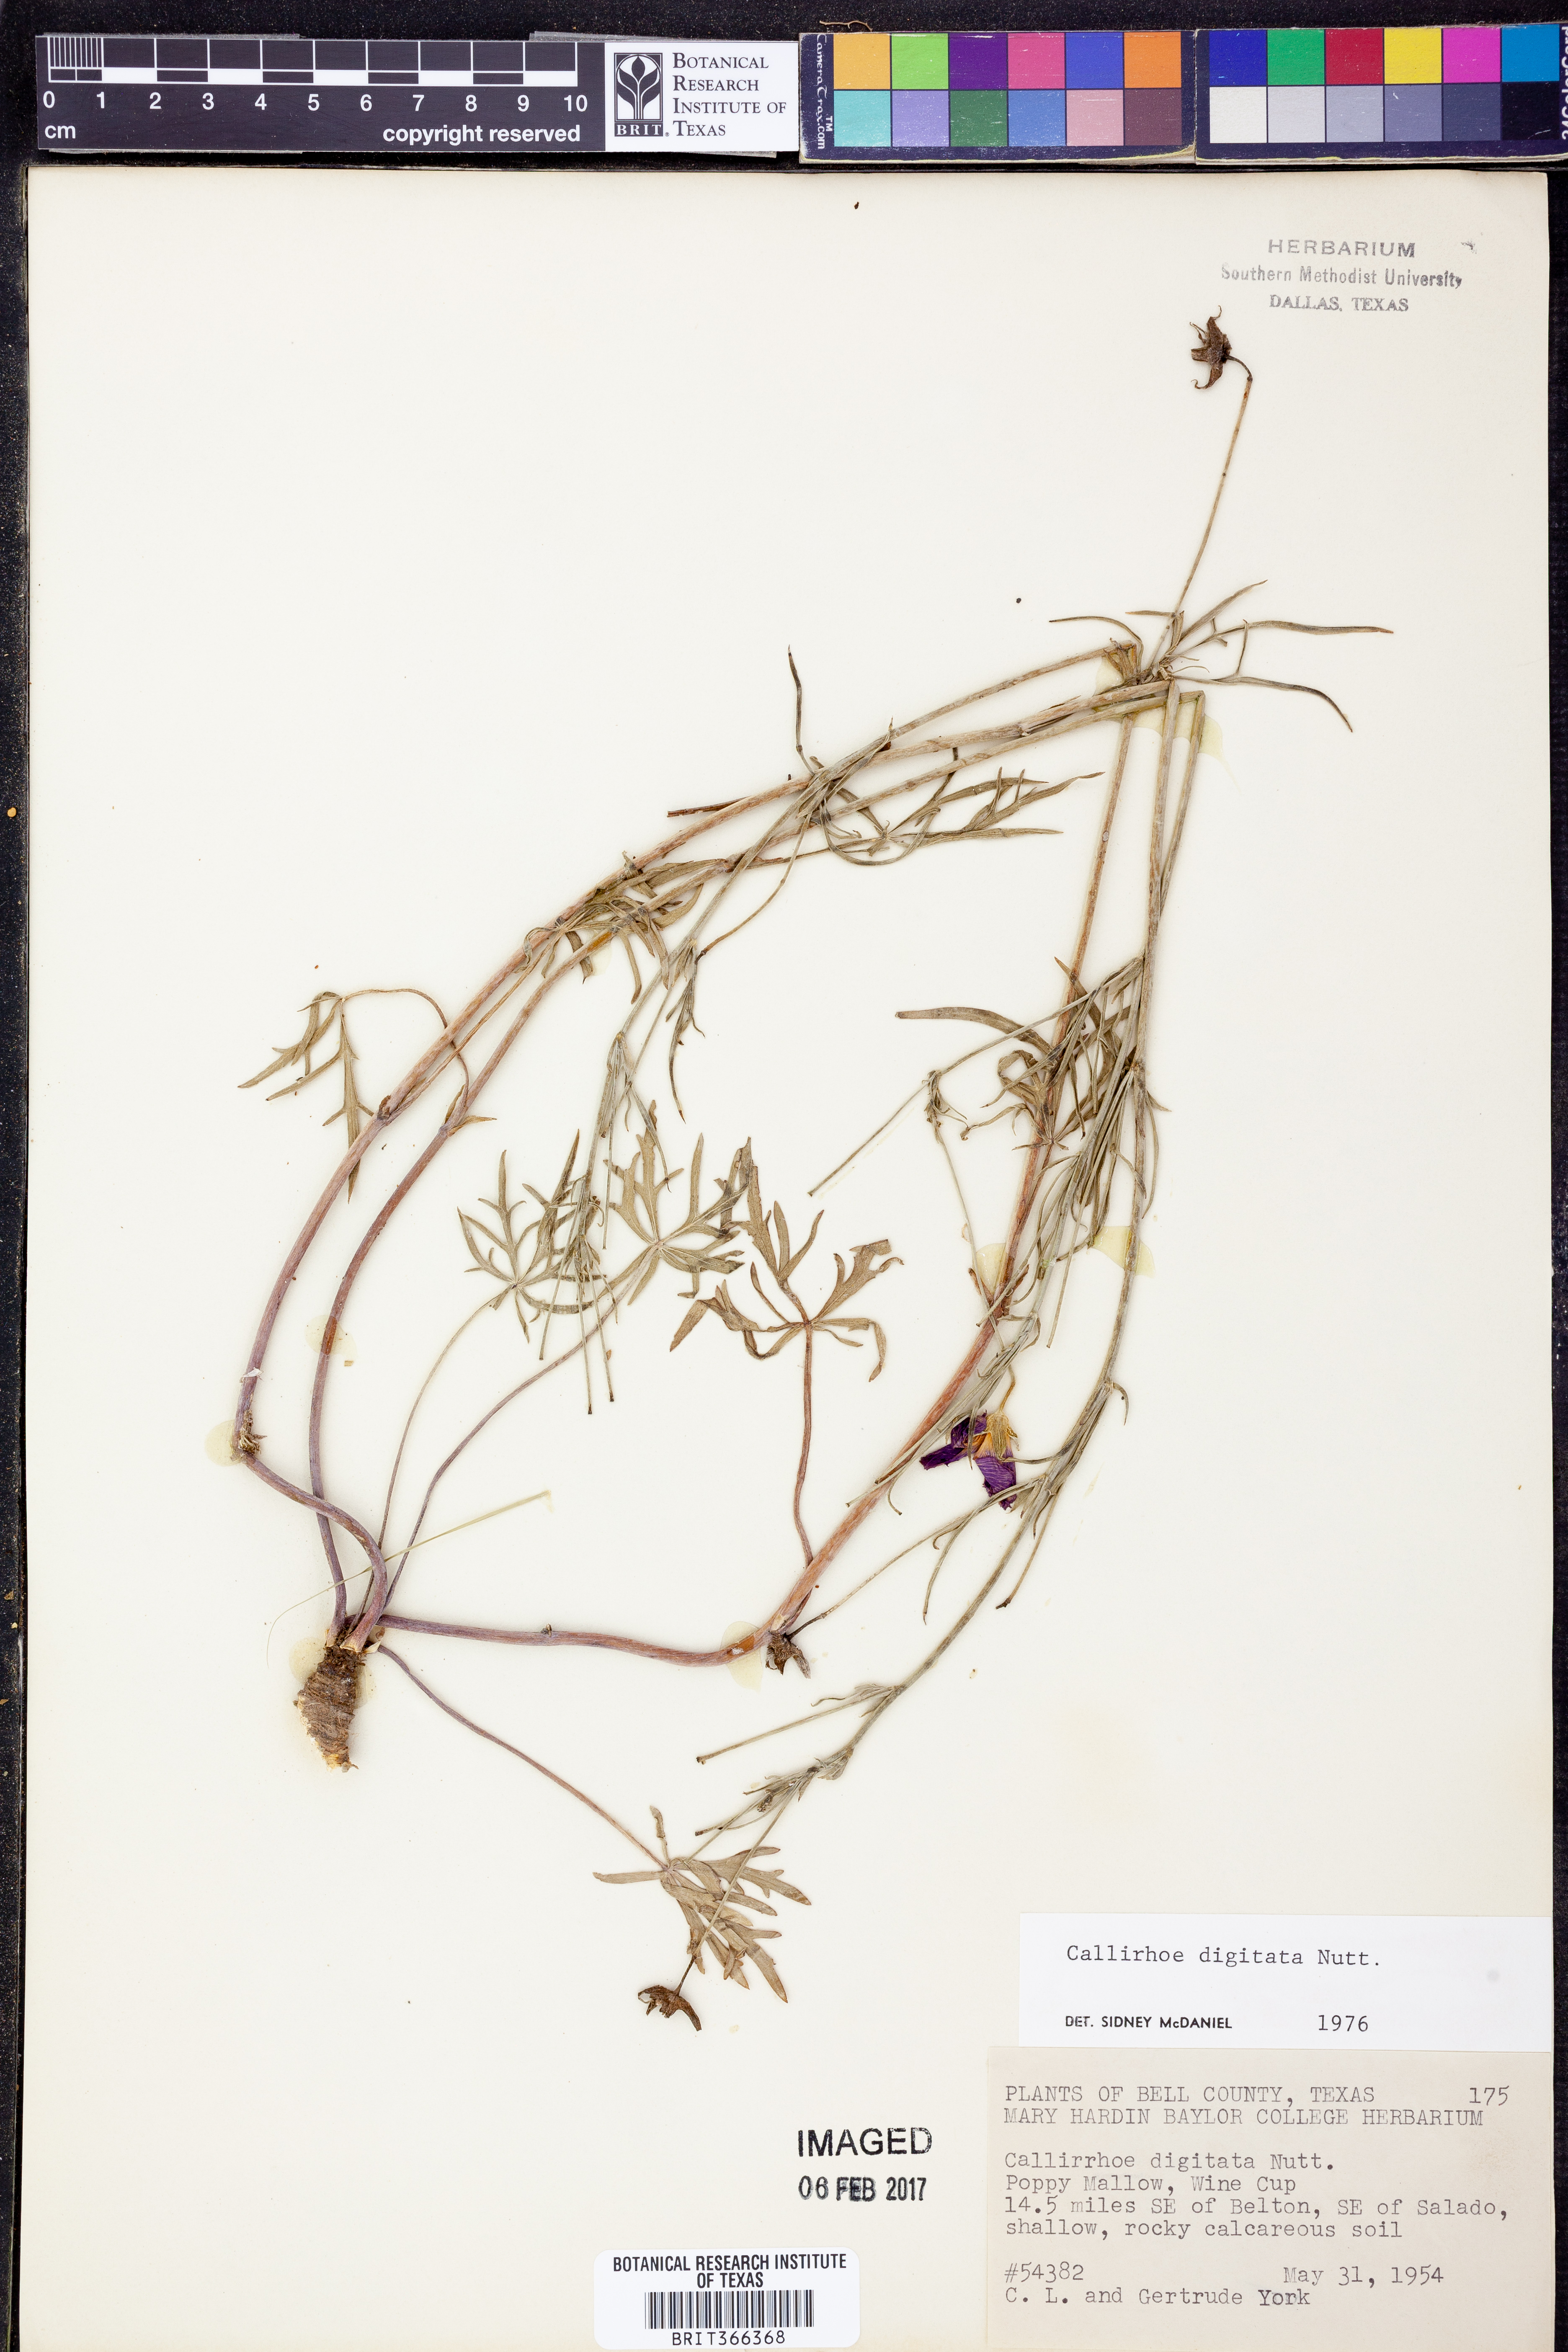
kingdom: Plantae
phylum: Tracheophyta
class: Magnoliopsida
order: Malvales
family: Malvaceae
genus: Callirhoe
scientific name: Callirhoe digitata
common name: Finger poppy-mallow
